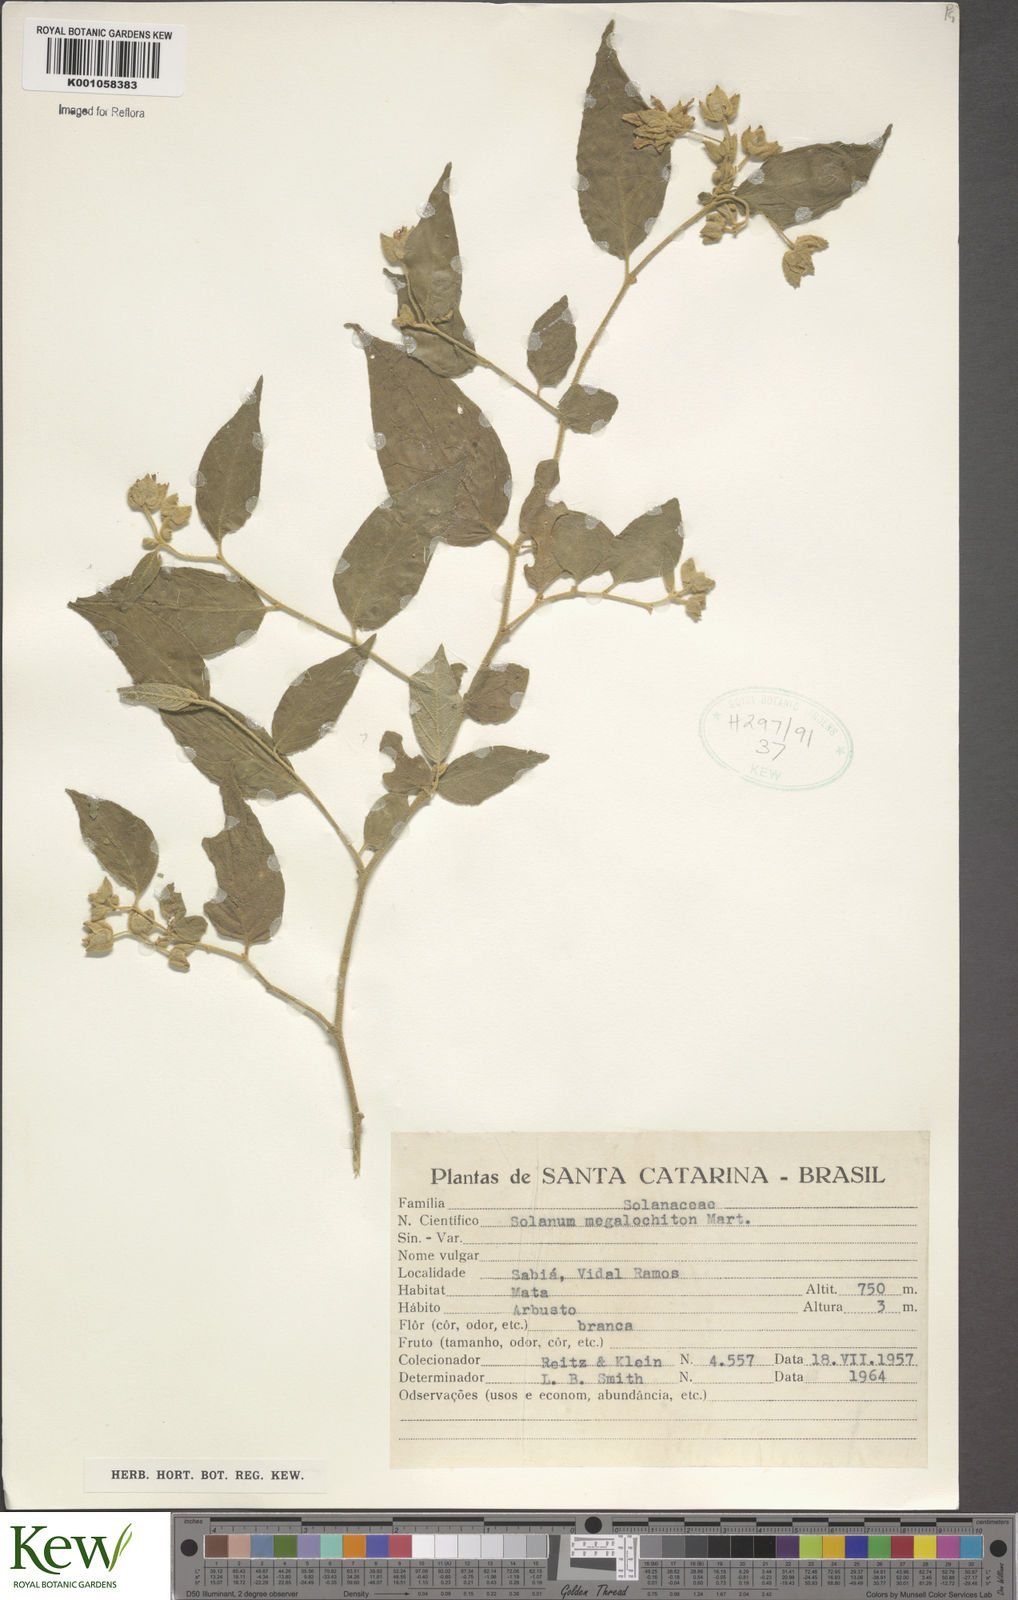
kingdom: Plantae
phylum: Tracheophyta
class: Magnoliopsida
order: Solanales
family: Solanaceae
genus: Solanum
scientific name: Solanum didymum
